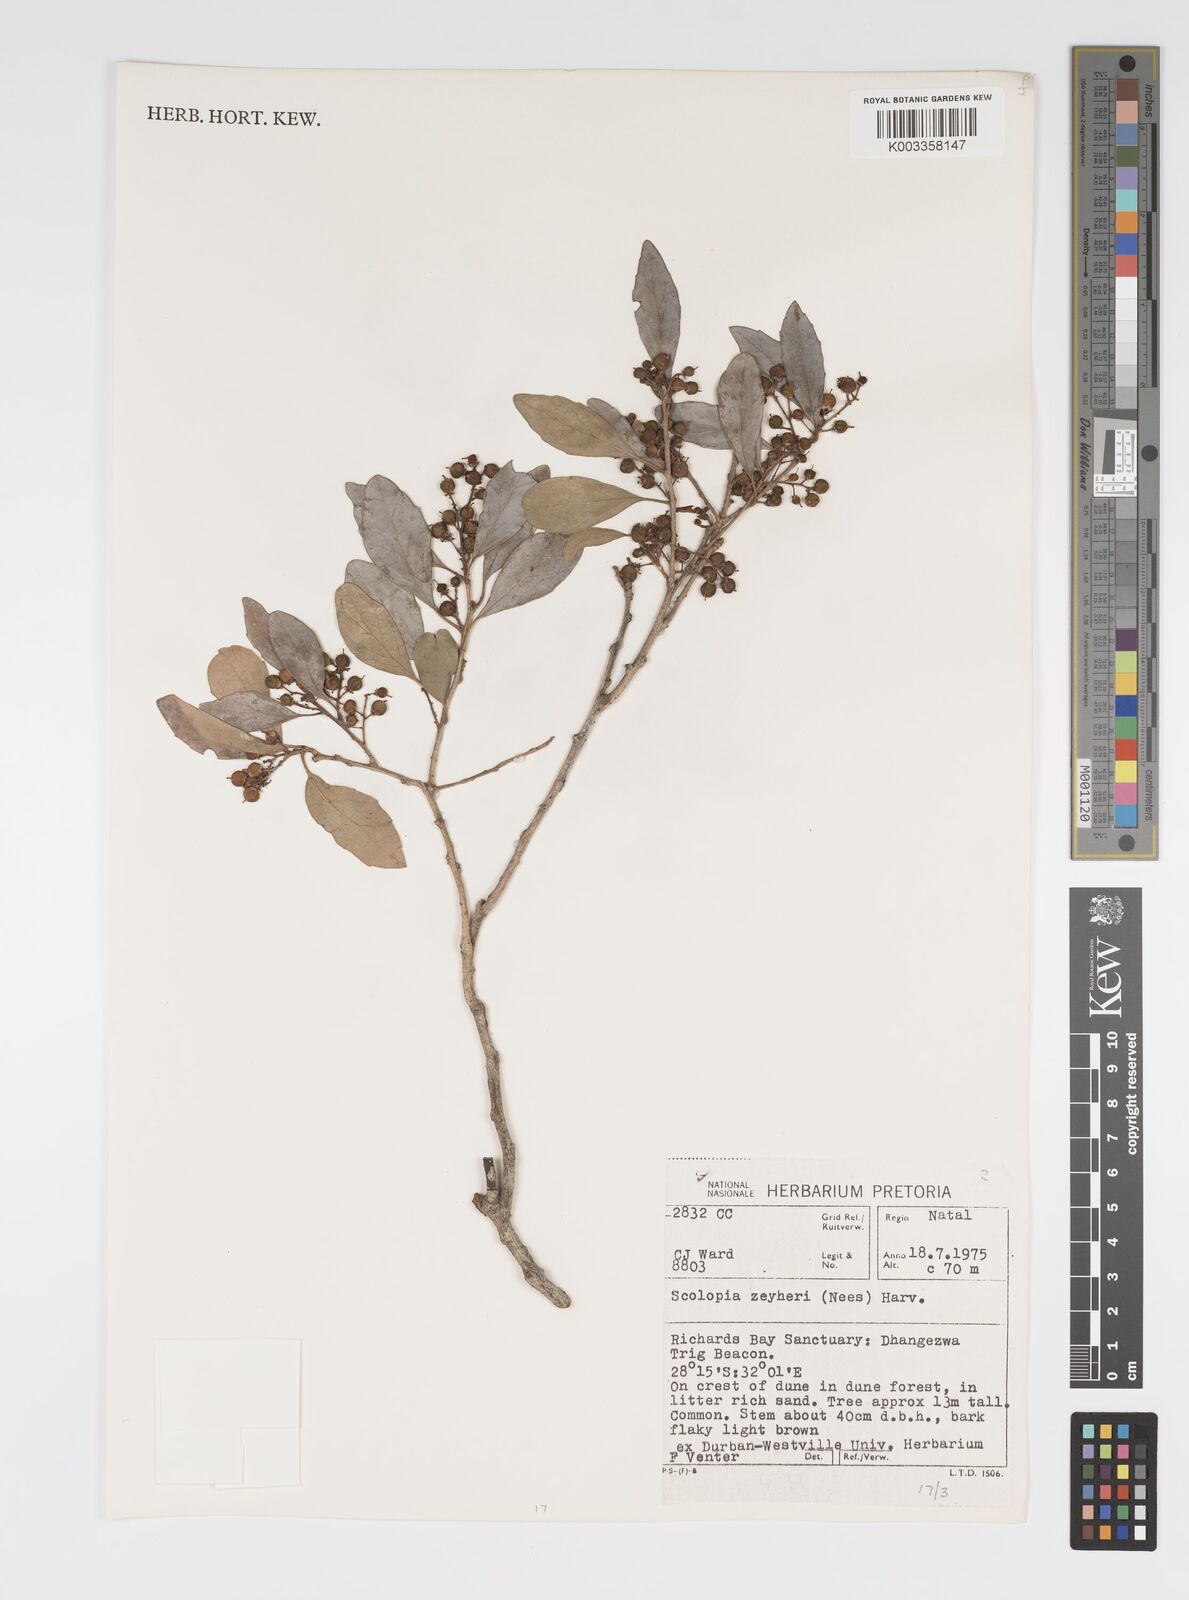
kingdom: Plantae
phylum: Tracheophyta
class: Magnoliopsida
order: Malpighiales
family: Salicaceae
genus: Scolopia
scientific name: Scolopia zeyheri
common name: Thorn pear
